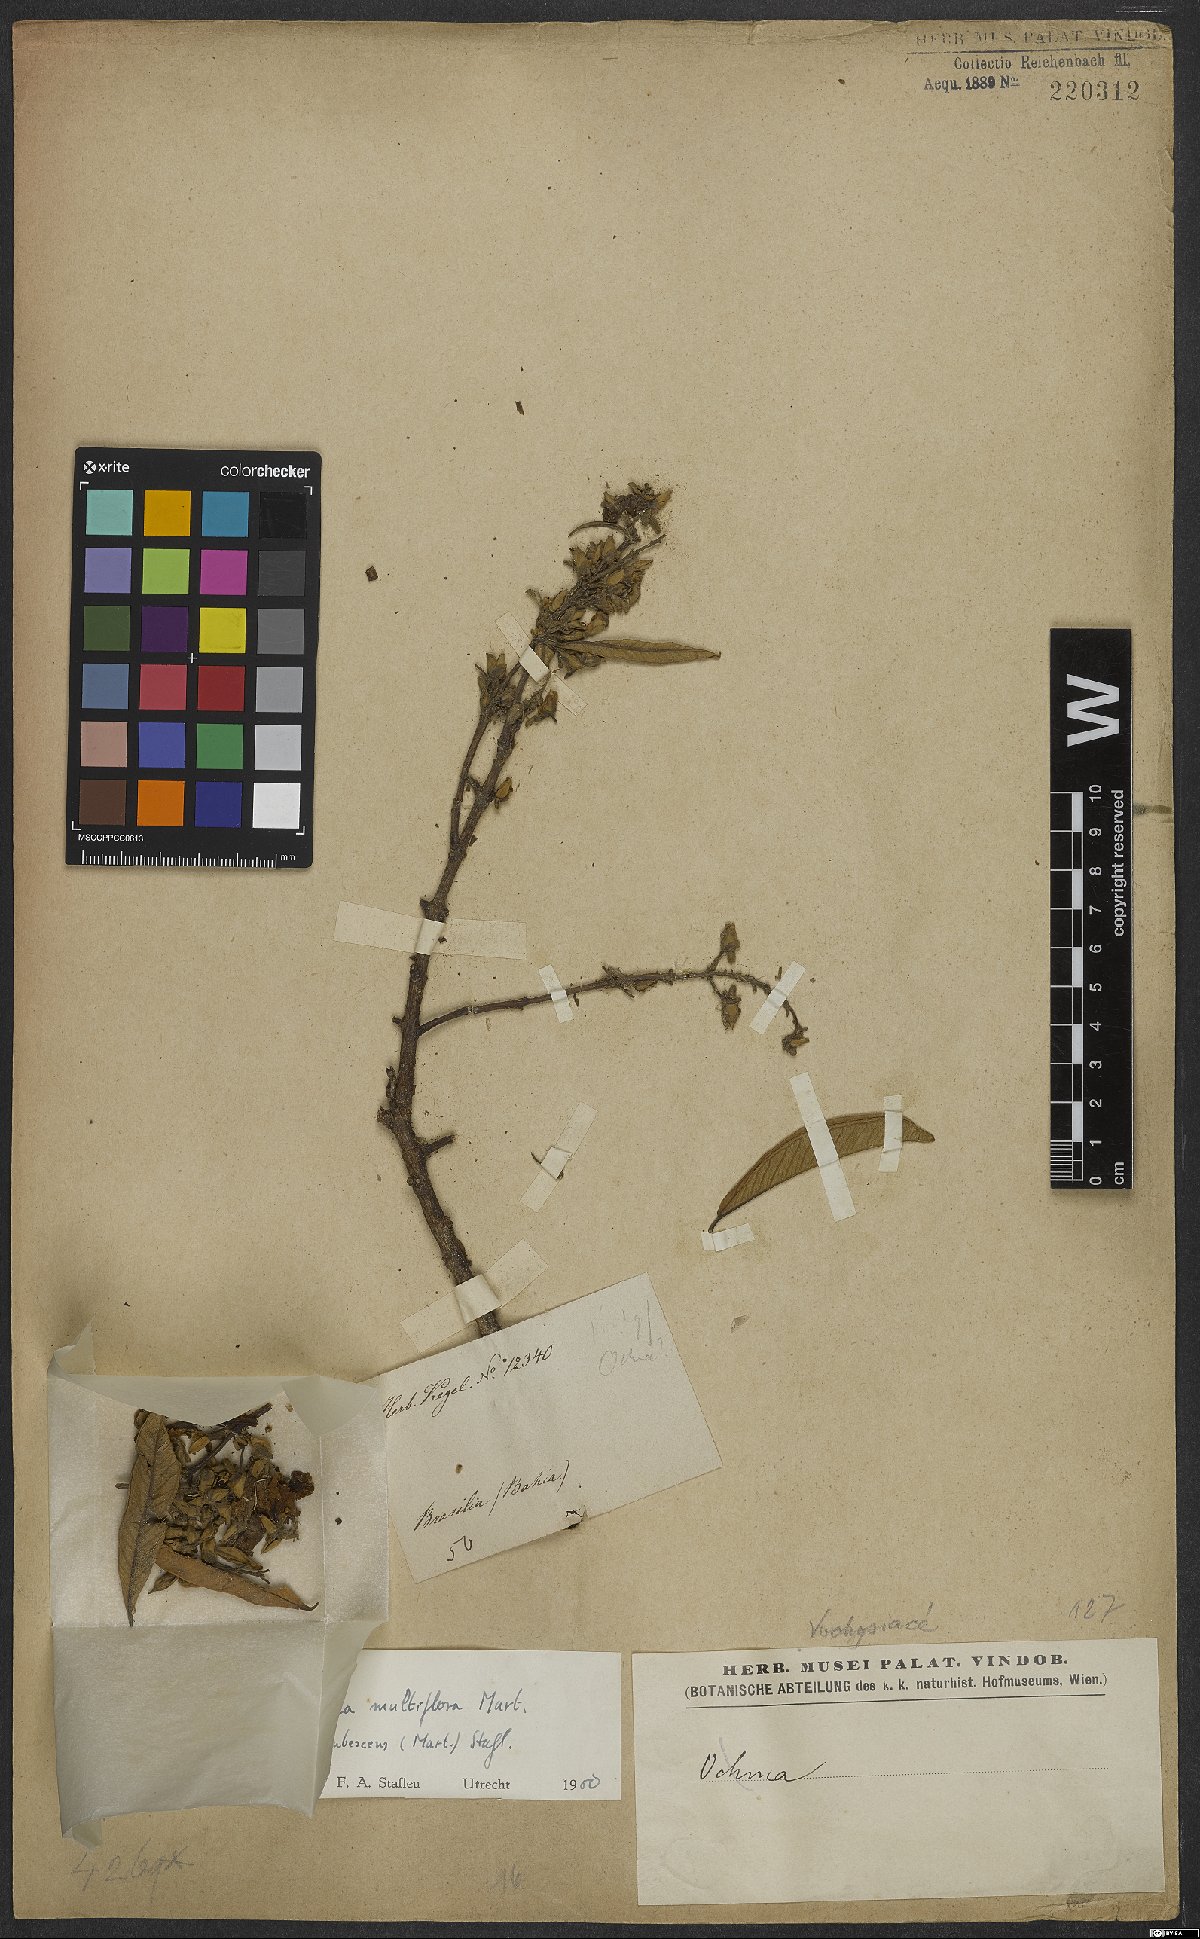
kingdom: Plantae
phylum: Tracheophyta
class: Magnoliopsida
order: Myrtales
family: Vochysiaceae
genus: Qualea
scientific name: Qualea multiflora
